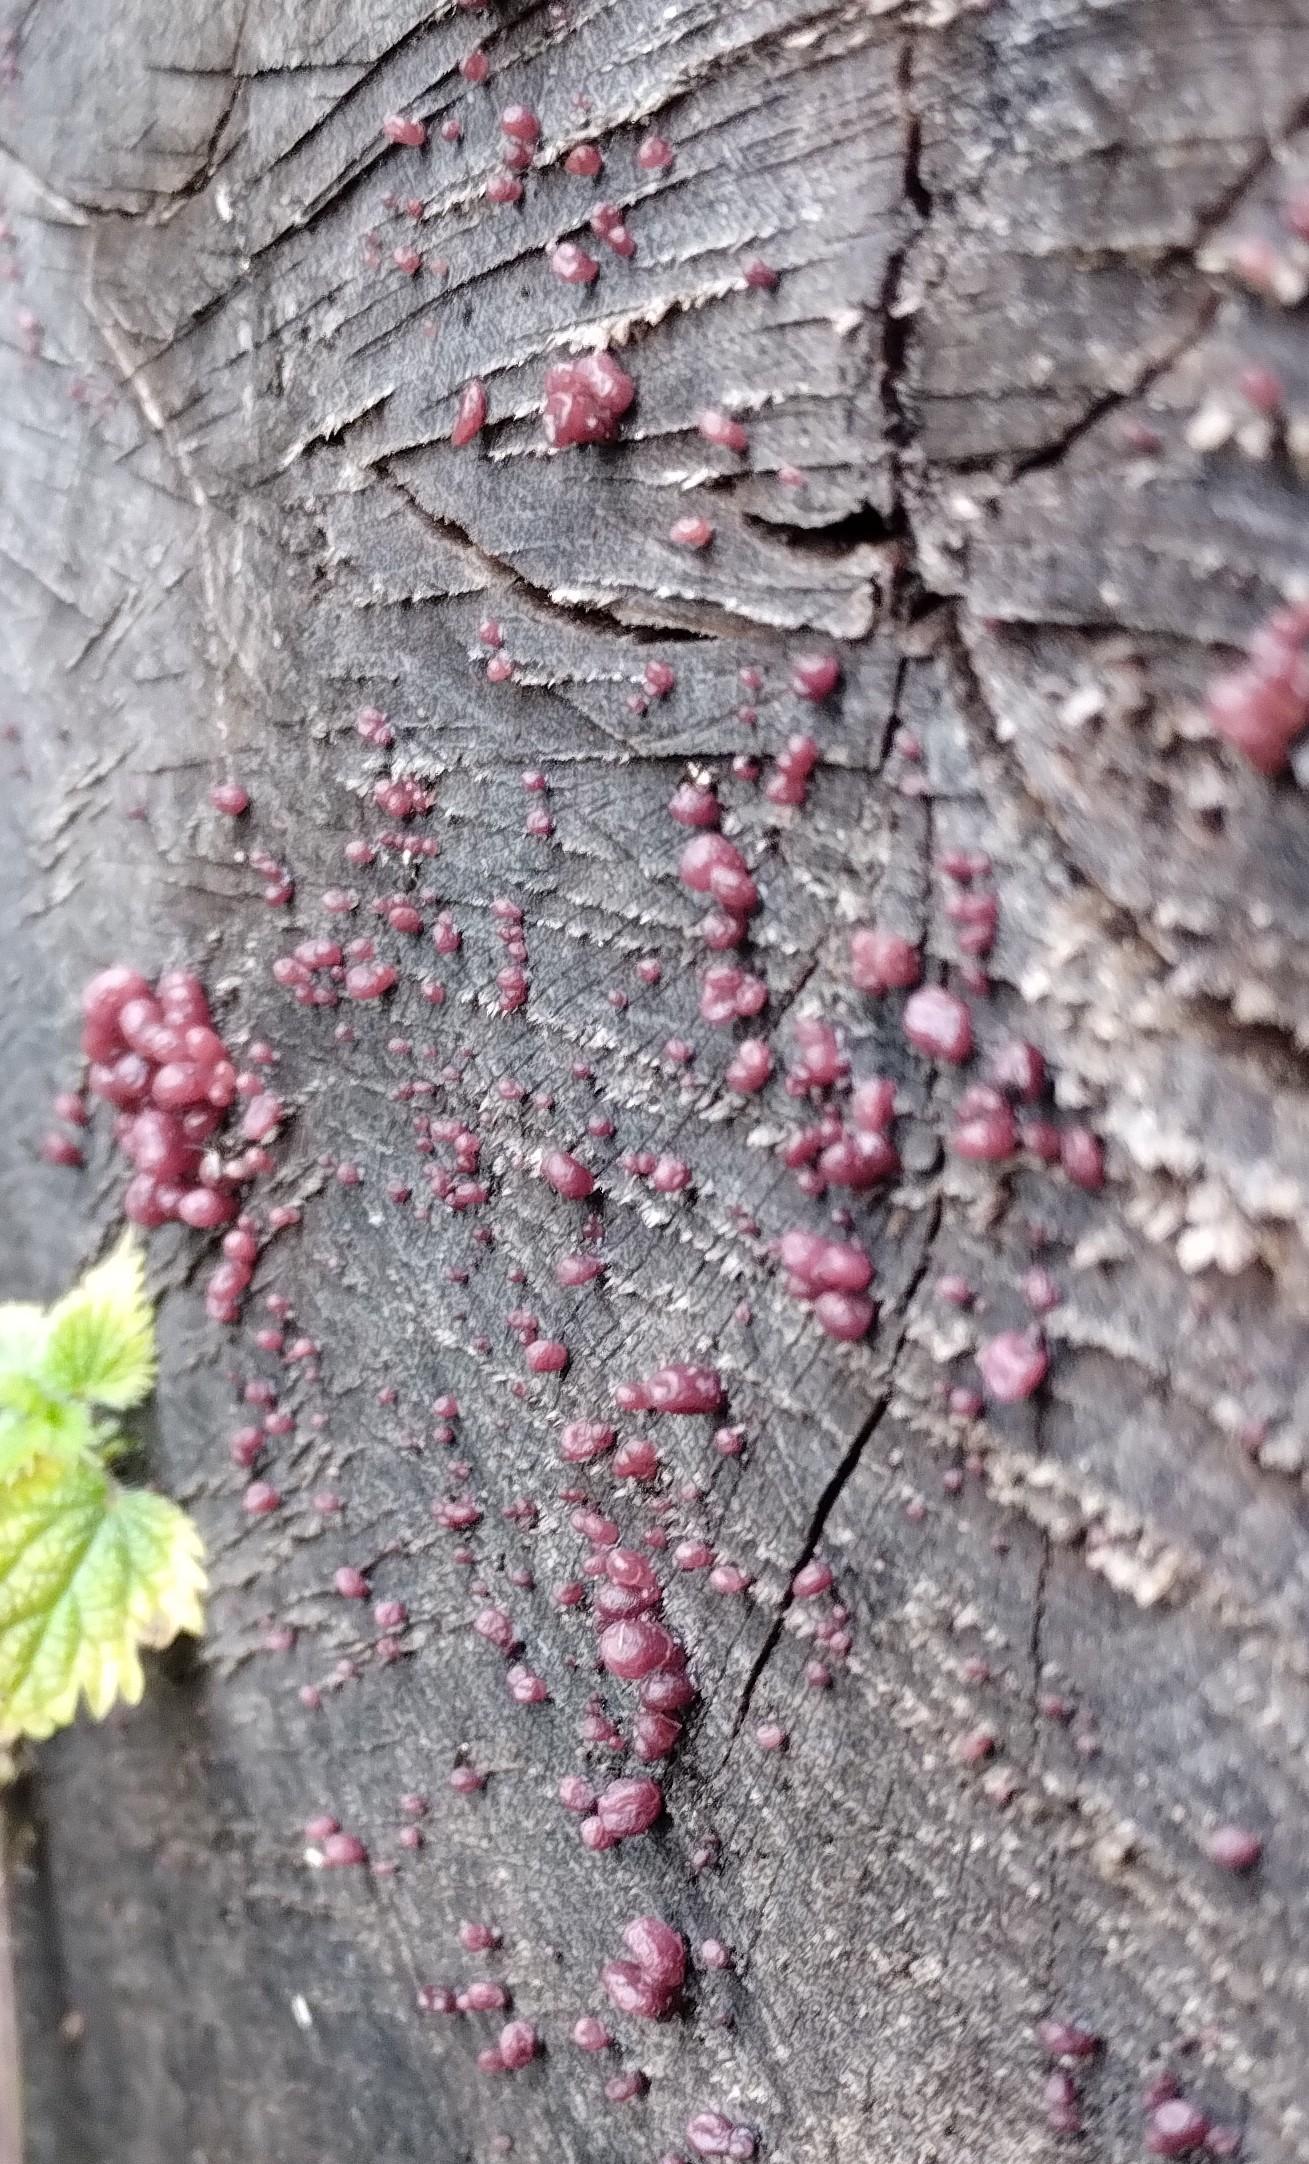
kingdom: Fungi
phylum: Ascomycota
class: Leotiomycetes
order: Helotiales
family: Gelatinodiscaceae
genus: Ascocoryne
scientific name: Ascocoryne sarcoides
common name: rødlilla sejskive
